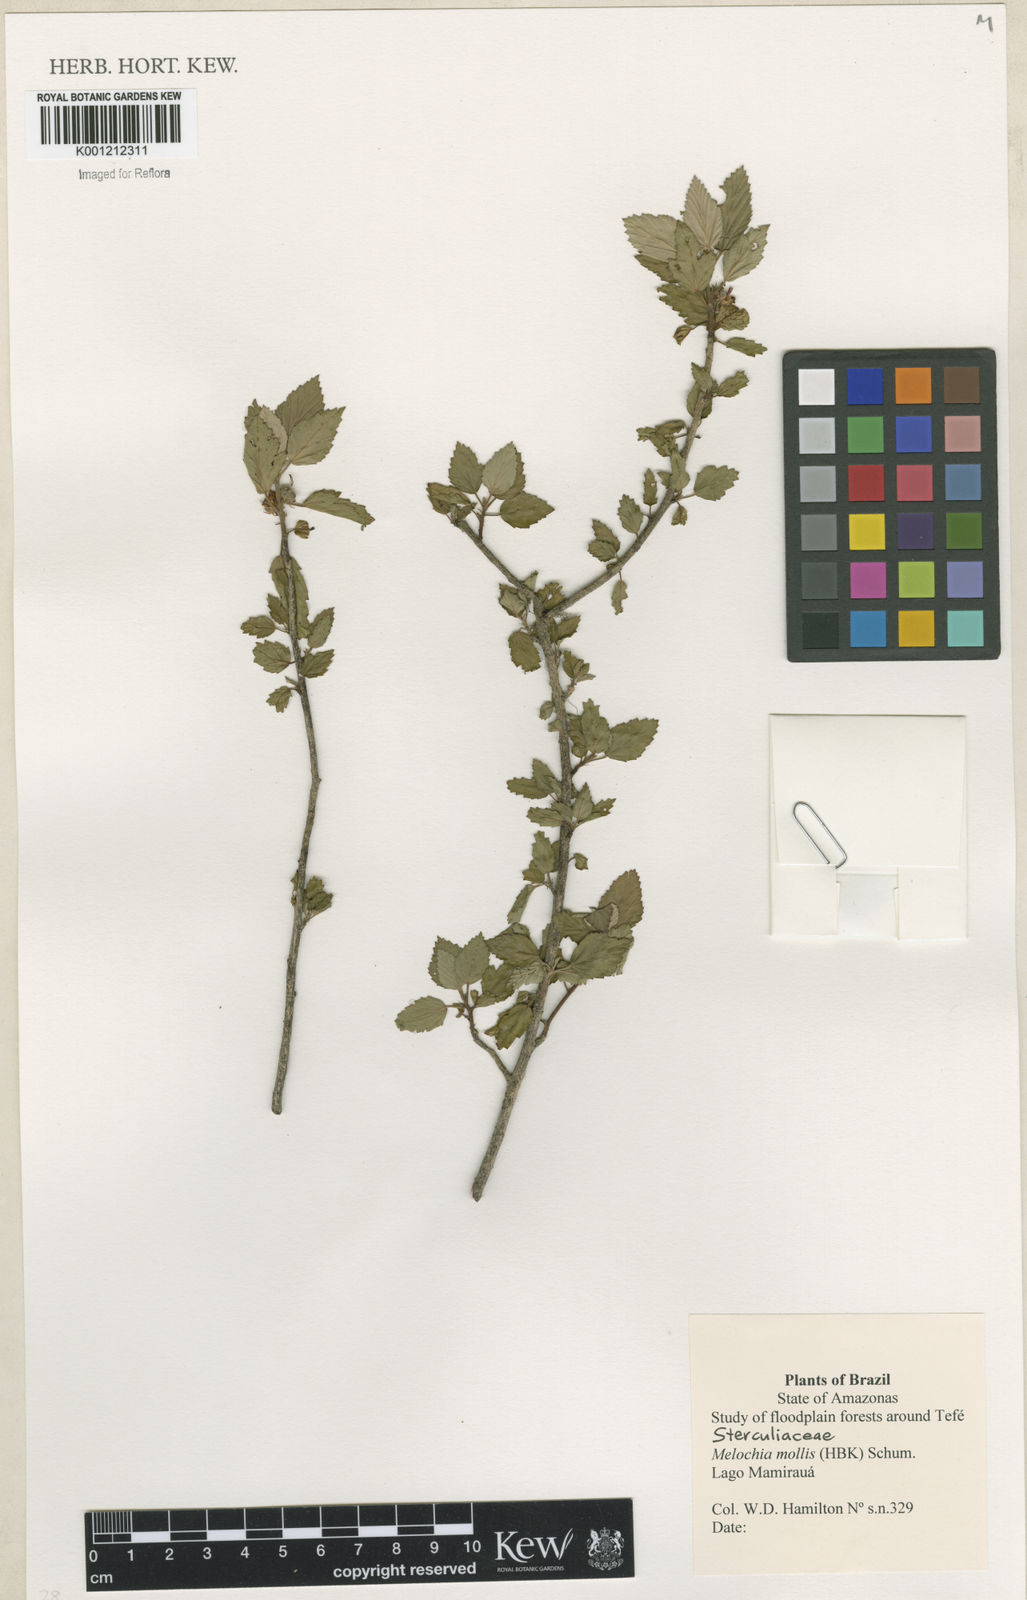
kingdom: Plantae
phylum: Tracheophyta
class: Magnoliopsida
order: Malvales
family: Malvaceae
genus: Melochia
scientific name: Melochia mollis
